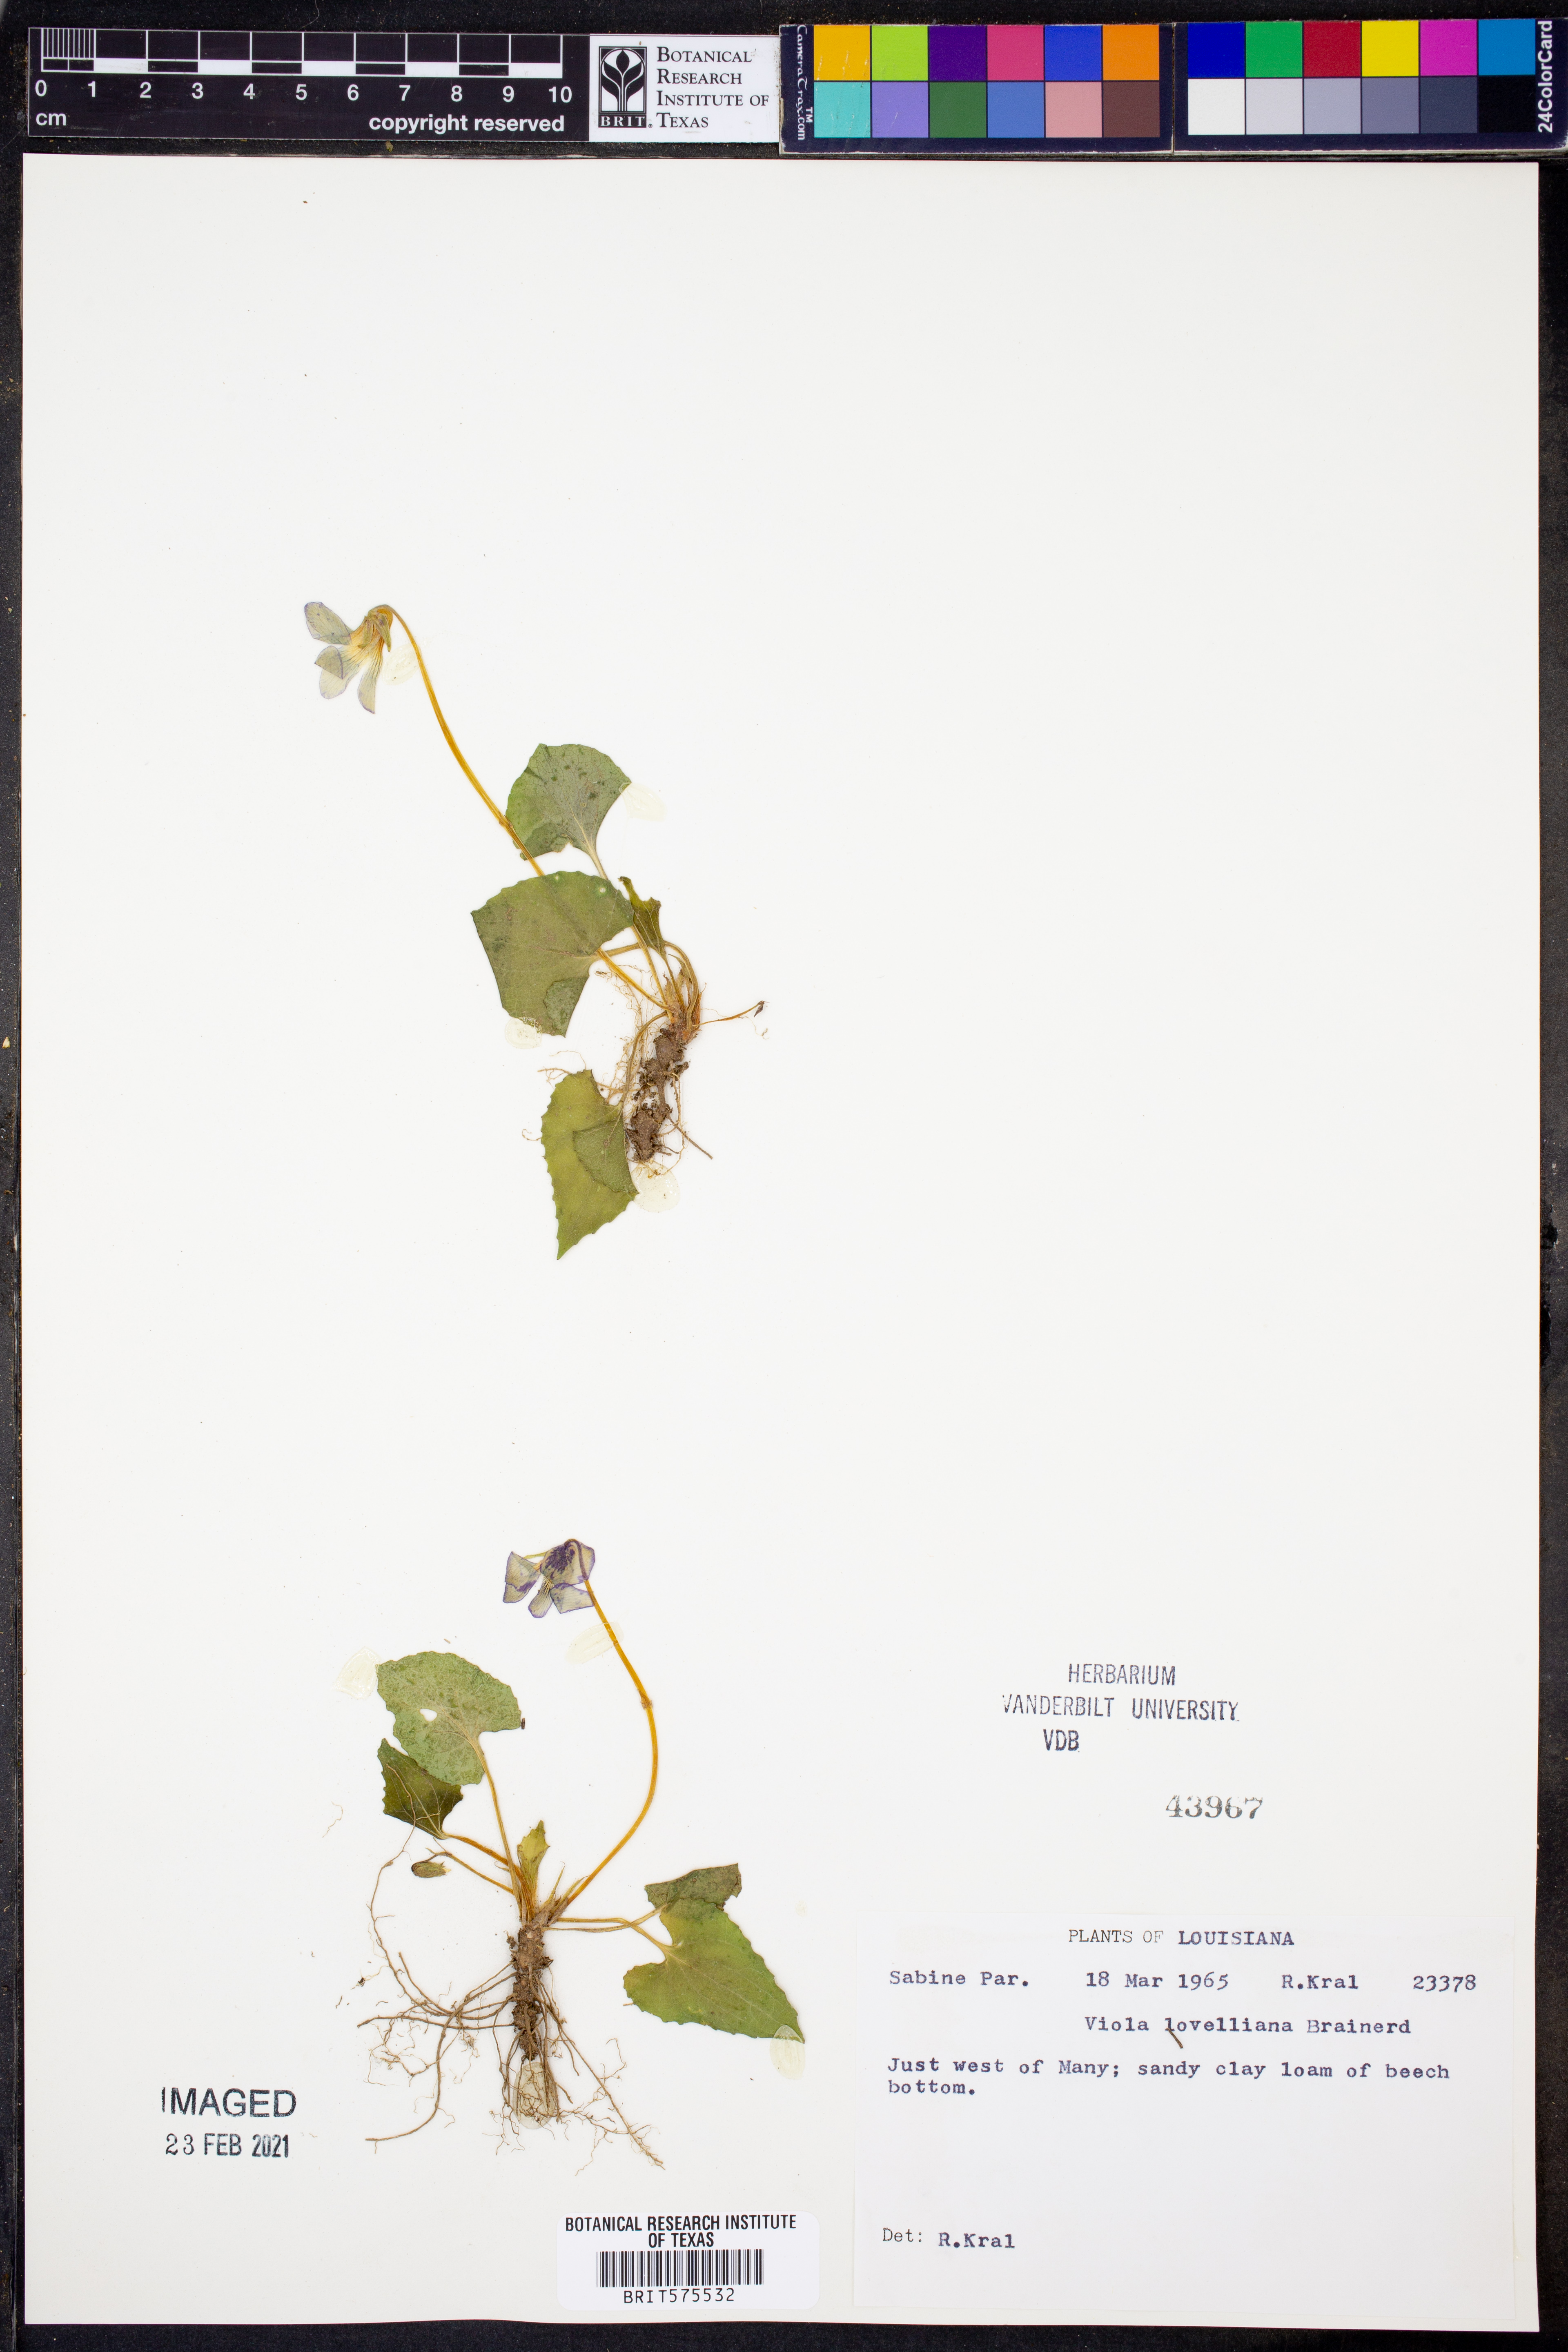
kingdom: Plantae
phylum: Tracheophyta
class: Magnoliopsida
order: Malpighiales
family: Violaceae
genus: Viola
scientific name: Viola lovelliana
